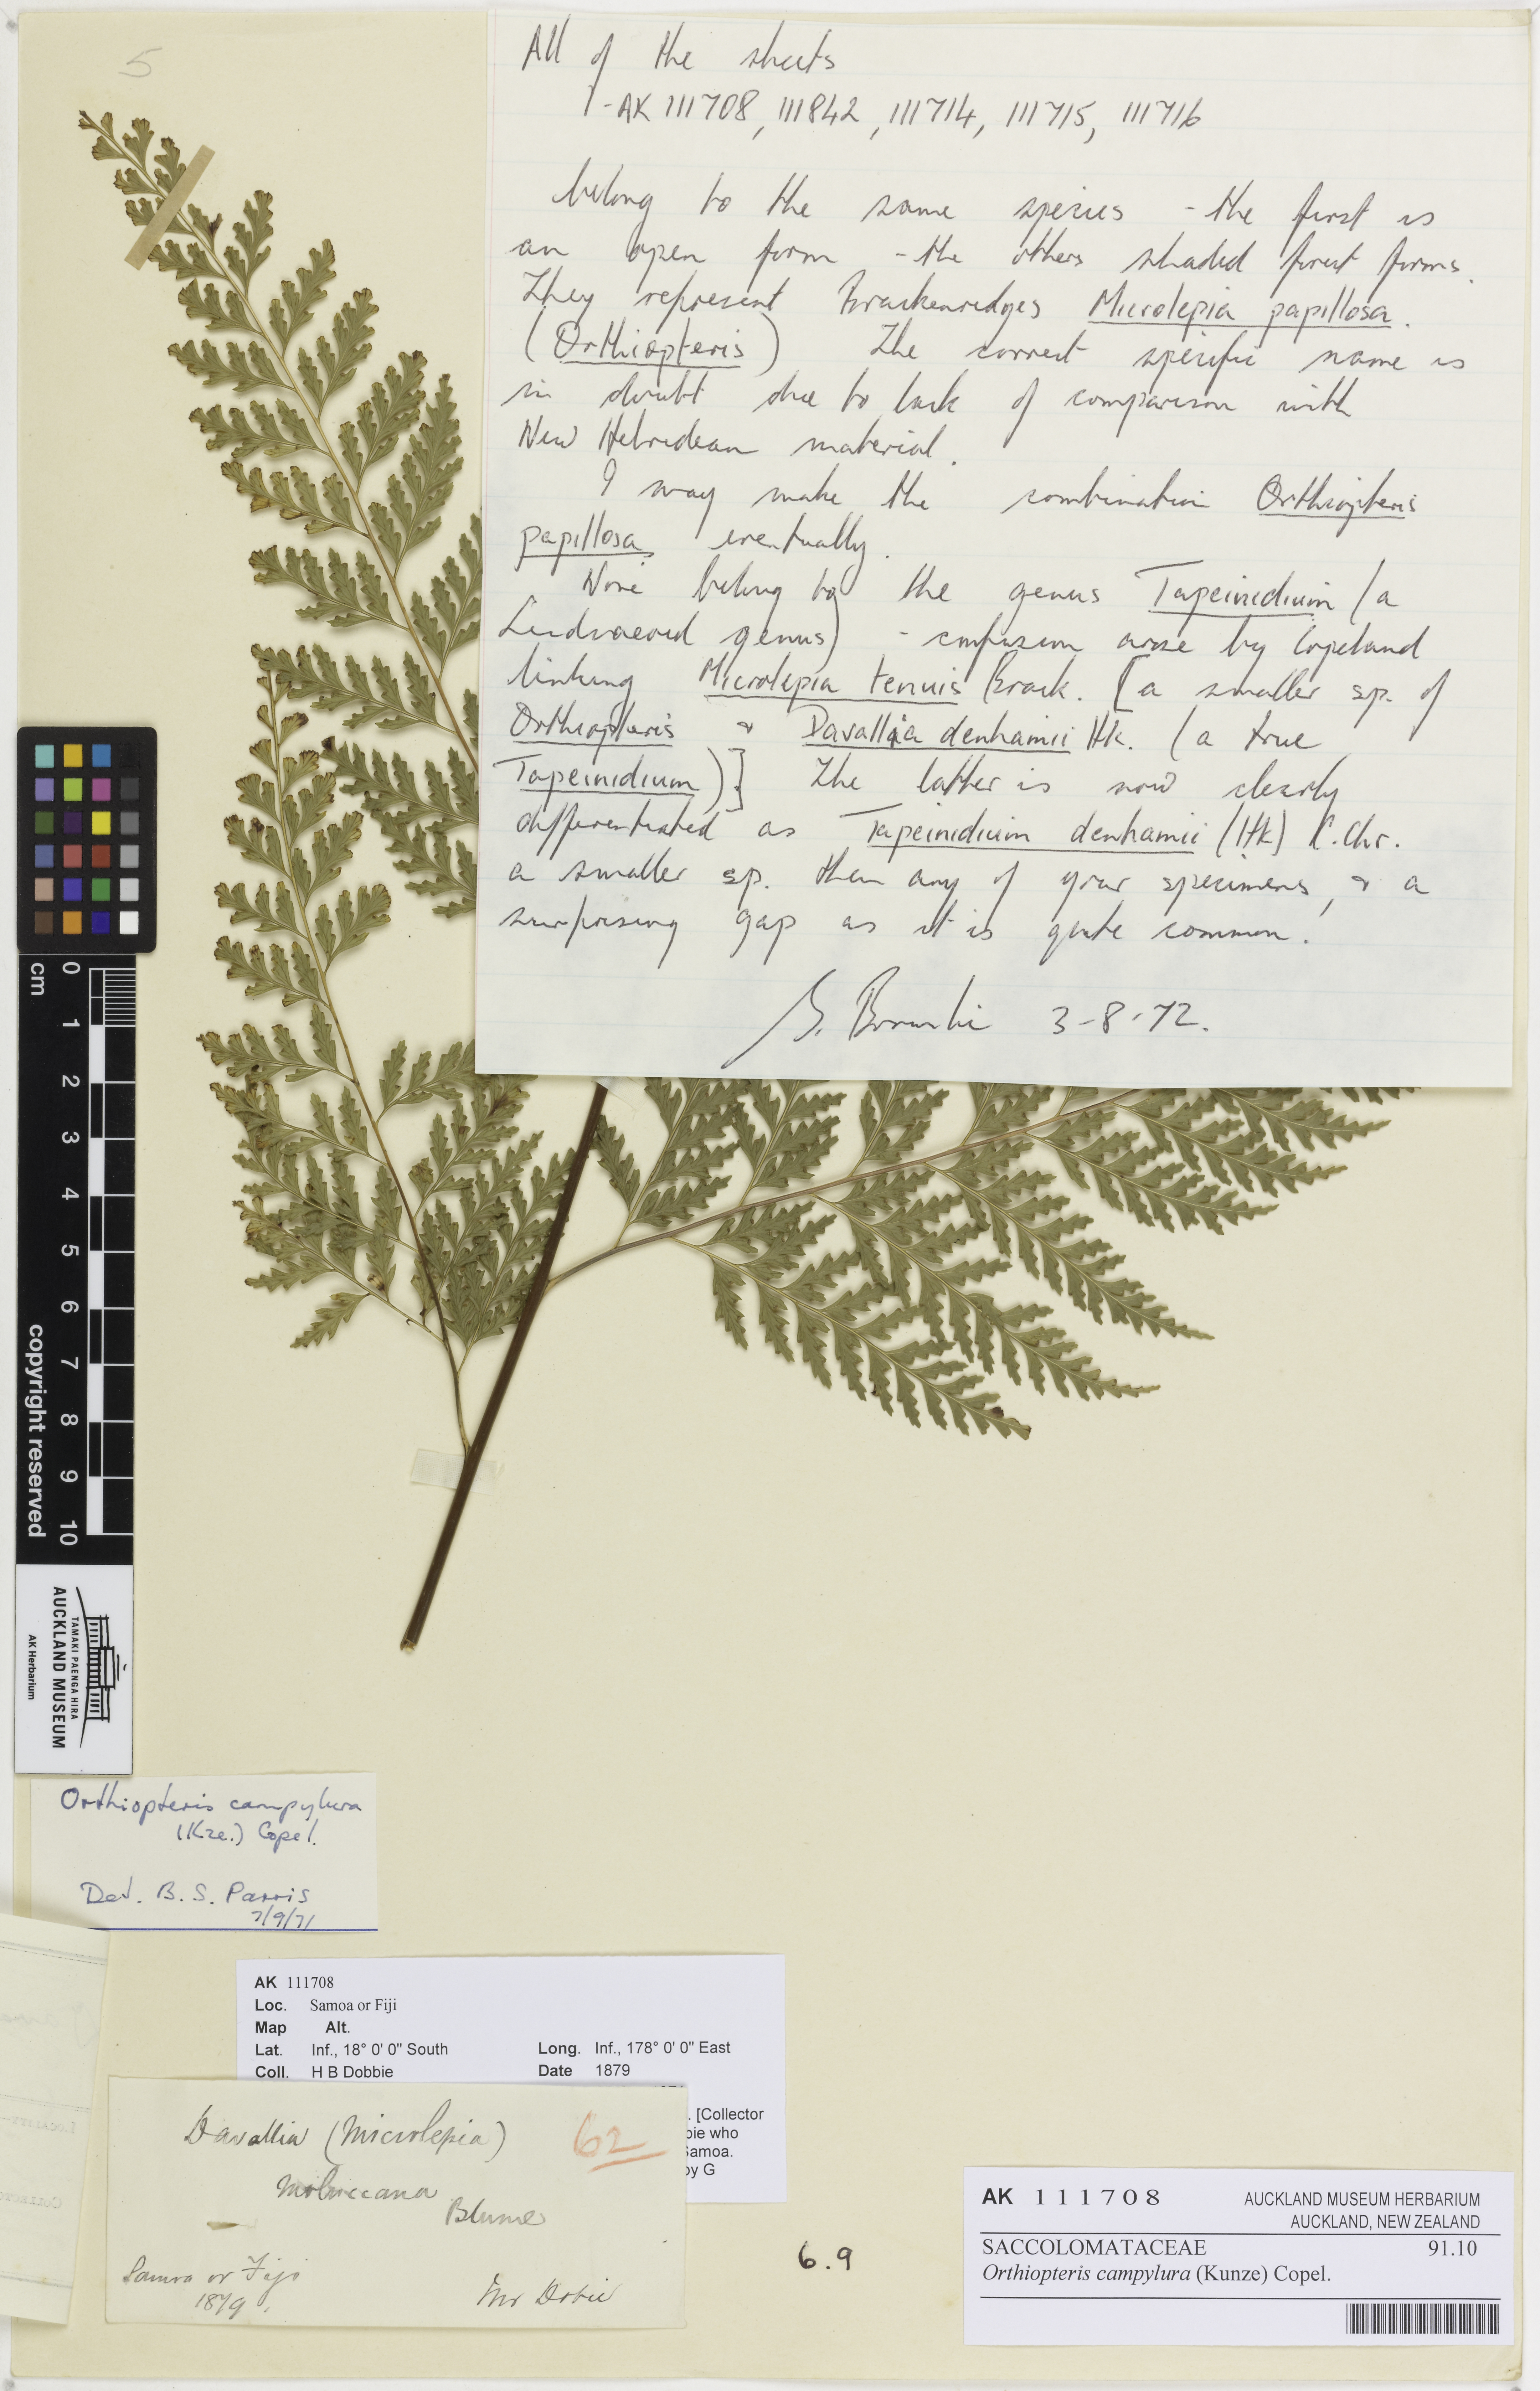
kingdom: Plantae
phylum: Tracheophyta
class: Polypodiopsida
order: Polypodiales
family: Saccolomataceae
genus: Orthiopteris
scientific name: Orthiopteris campylura
